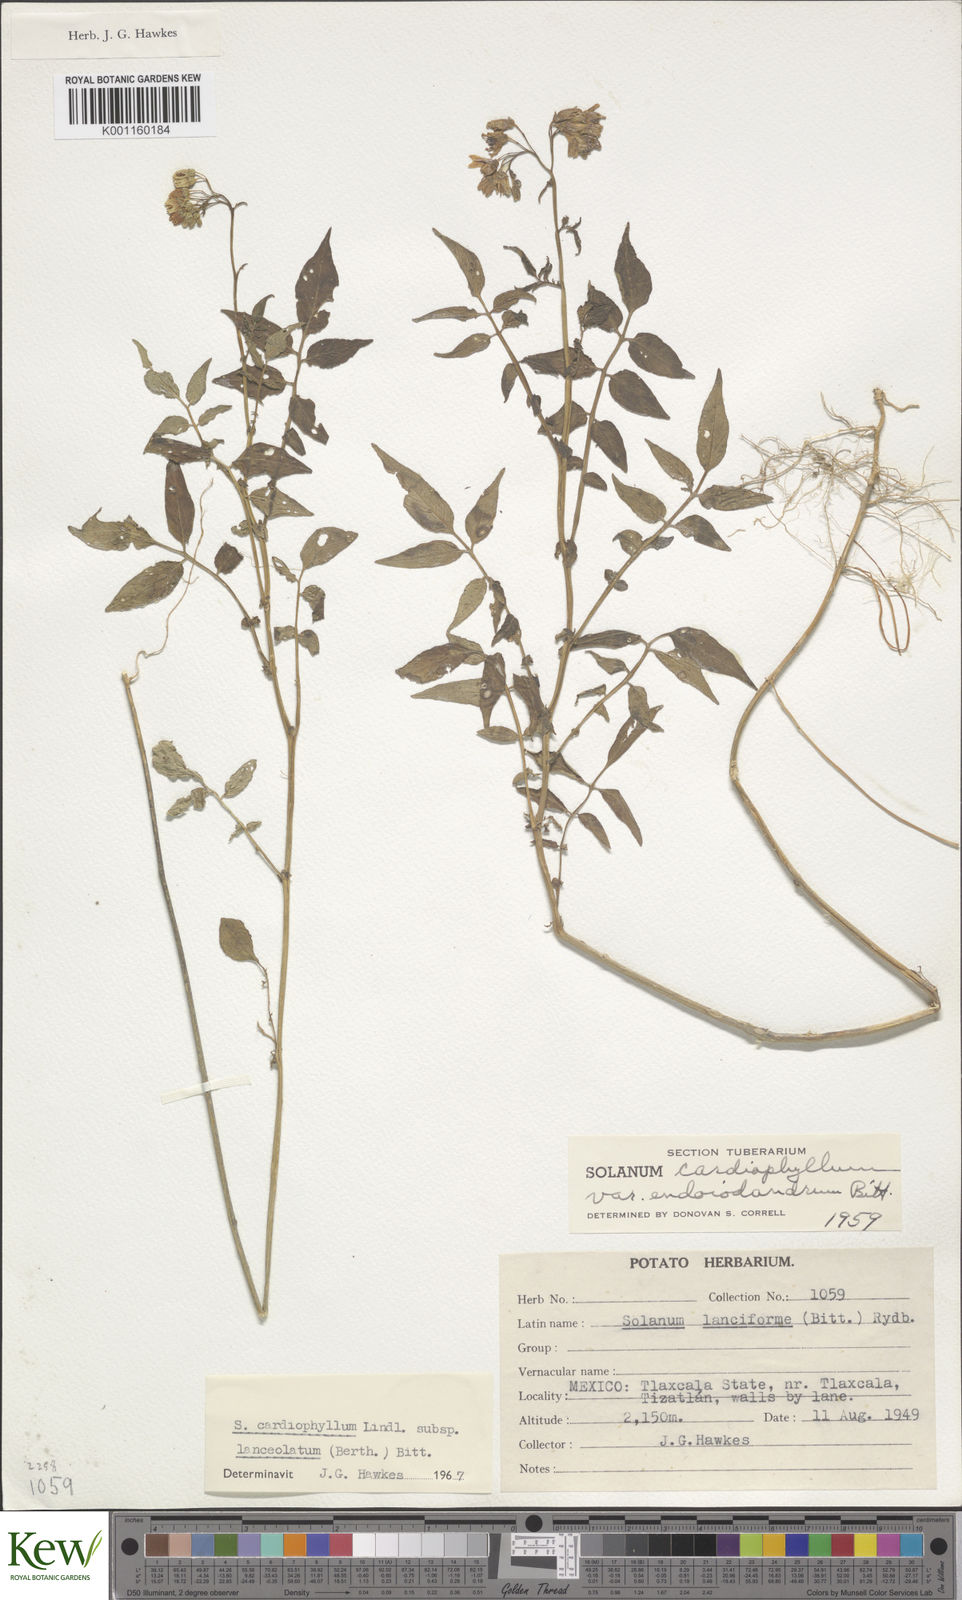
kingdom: Plantae
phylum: Tracheophyta
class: Magnoliopsida
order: Solanales
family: Solanaceae
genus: Solanum
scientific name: Solanum cardiophyllum
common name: Heartleaf horsenettle
